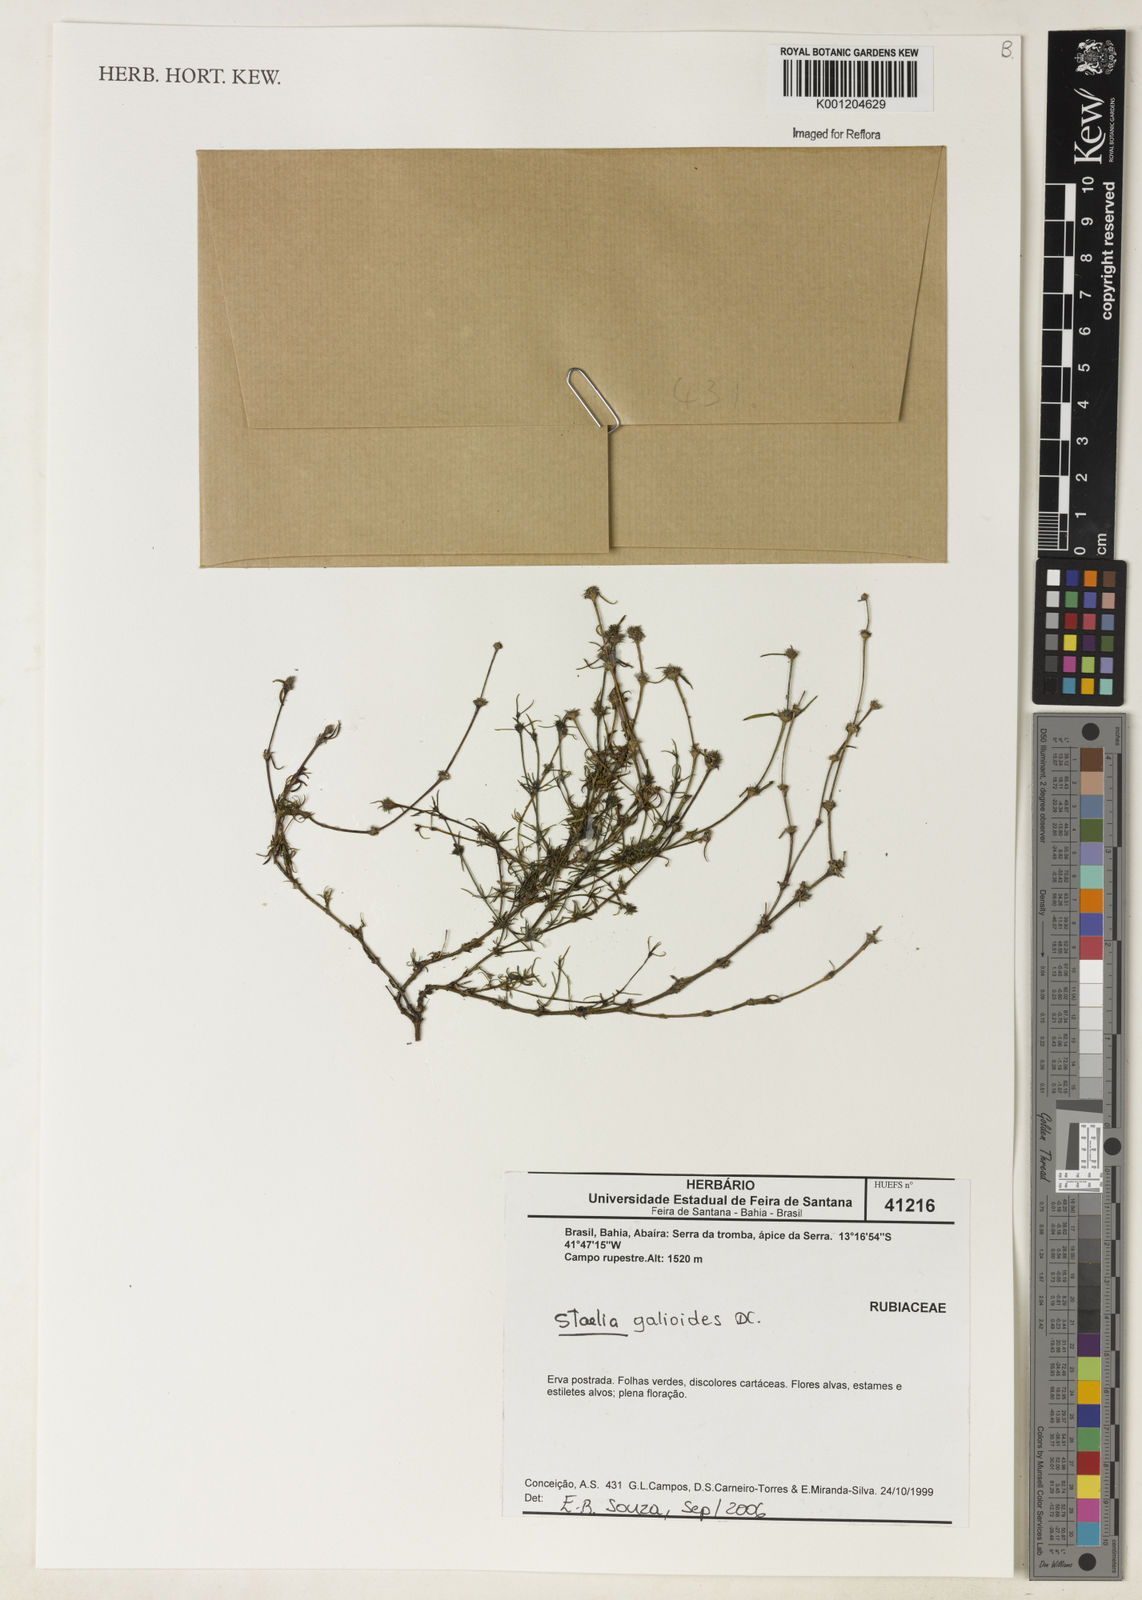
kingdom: Plantae
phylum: Tracheophyta
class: Magnoliopsida
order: Gentianales
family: Rubiaceae
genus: Staelia
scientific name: Staelia galioides
